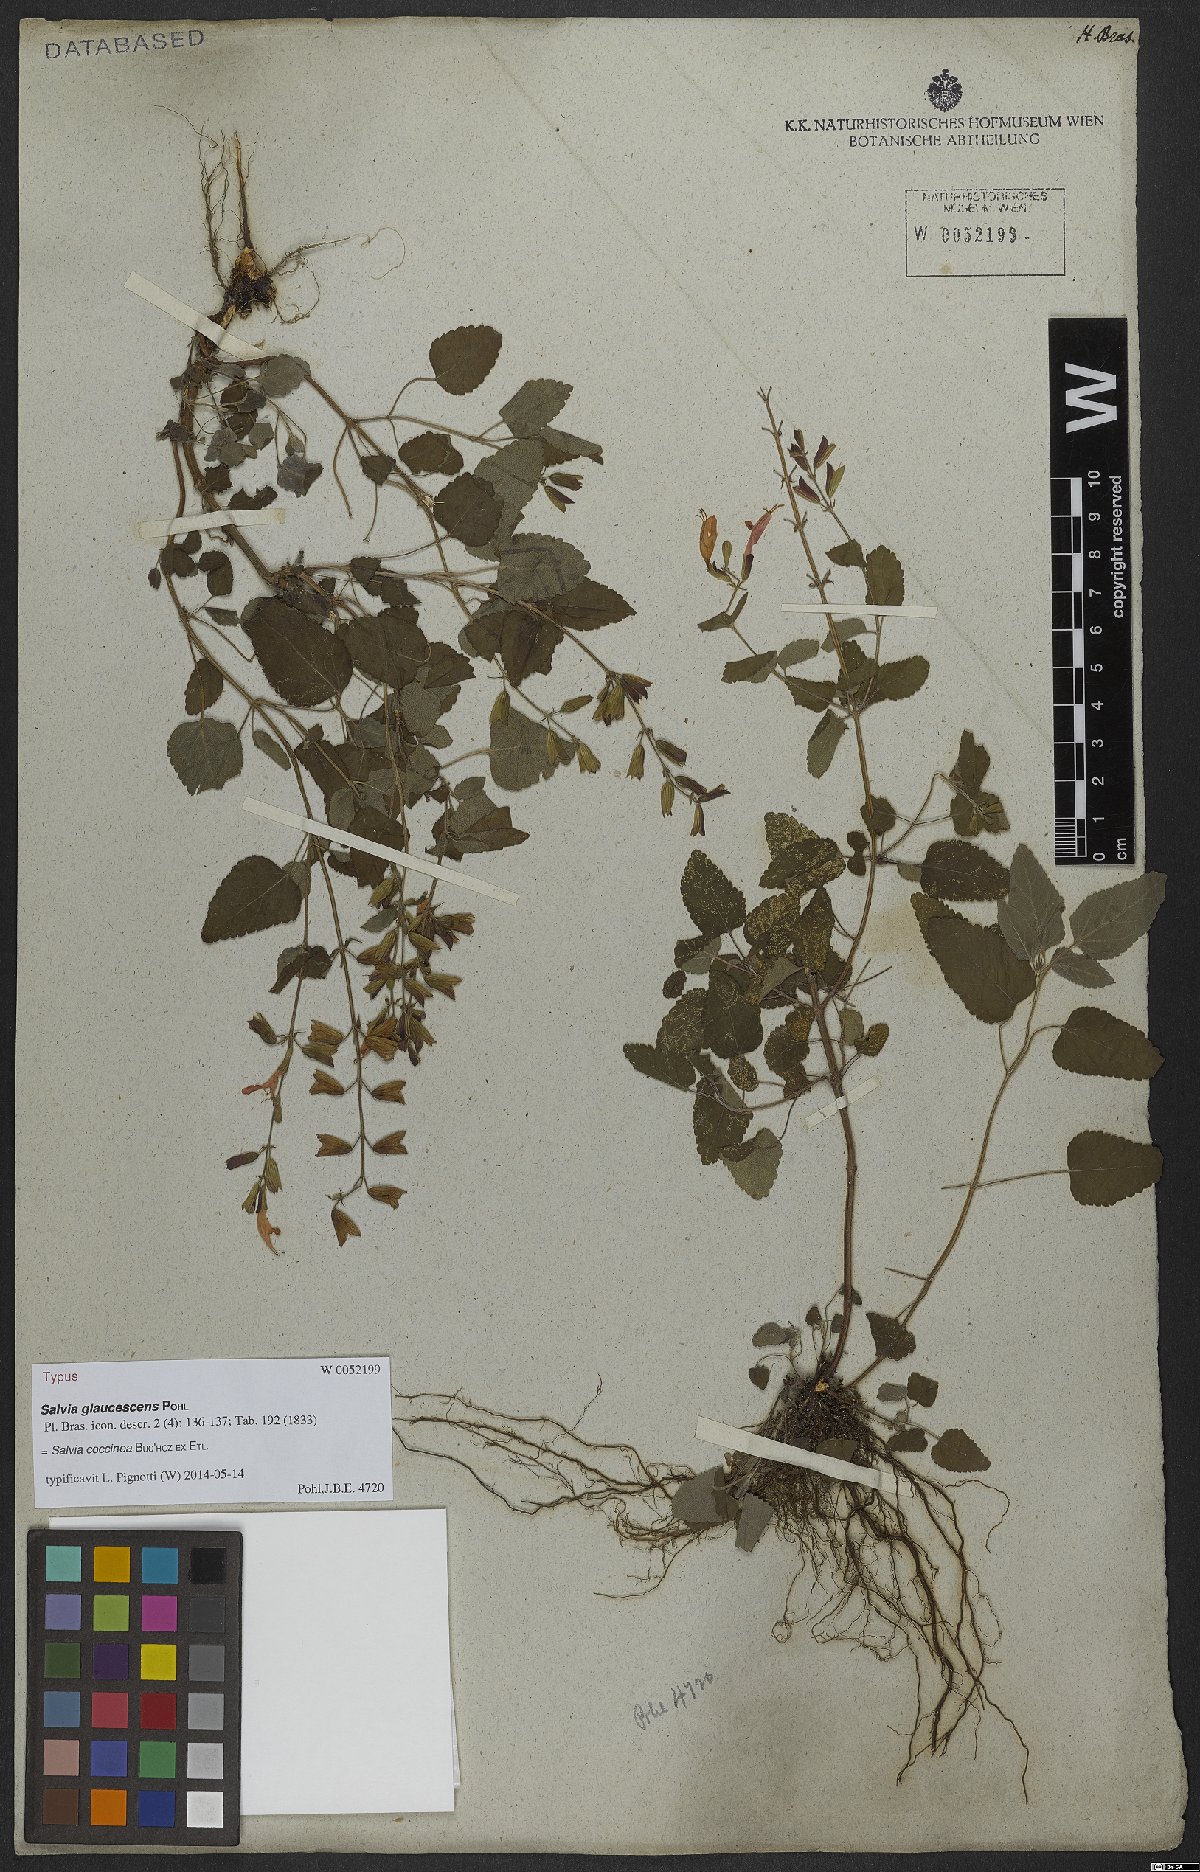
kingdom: Plantae
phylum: Tracheophyta
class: Magnoliopsida
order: Lamiales
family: Lamiaceae
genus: Salvia
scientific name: Salvia coccinea
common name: Blood sage
